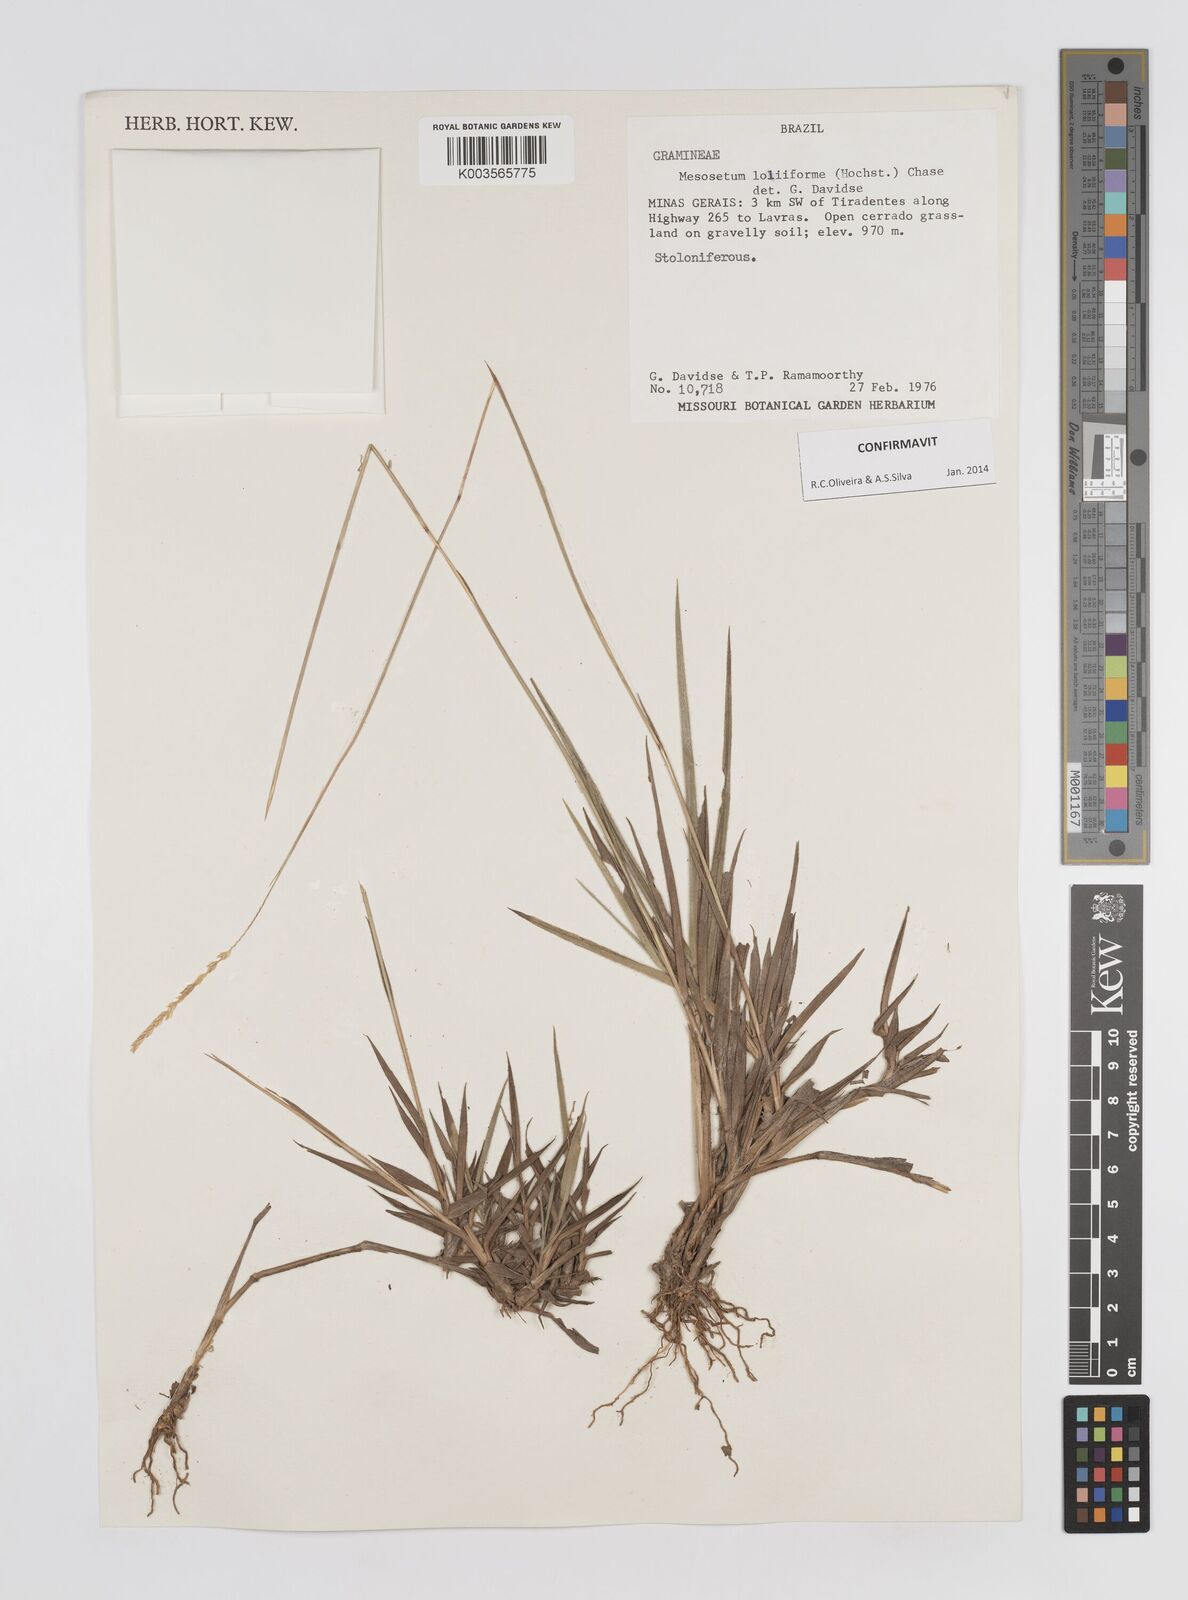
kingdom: Plantae
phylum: Tracheophyta
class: Liliopsida
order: Poales
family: Poaceae
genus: Mesosetum
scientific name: Mesosetum loliiforme
